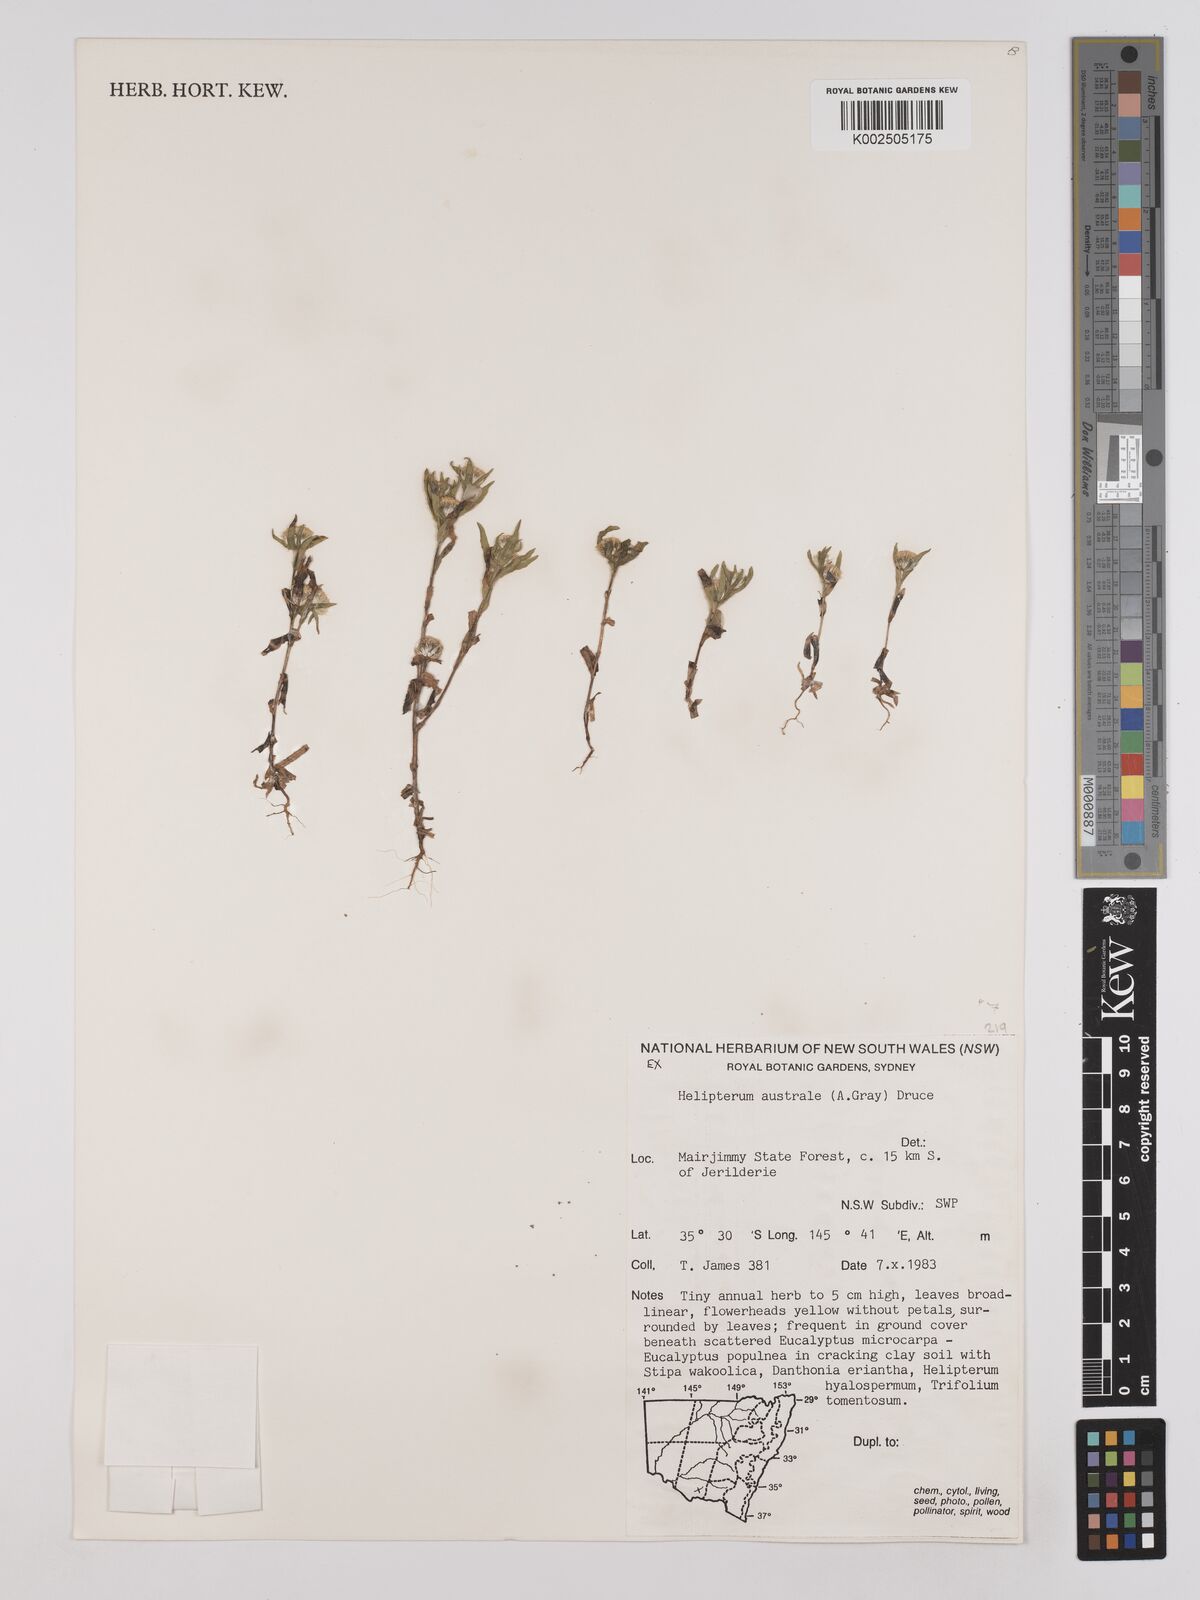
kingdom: Plantae
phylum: Tracheophyta
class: Magnoliopsida
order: Asterales
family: Asteraceae
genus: Triptilodiscus
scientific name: Triptilodiscus pygmaeus
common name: Common sunray
